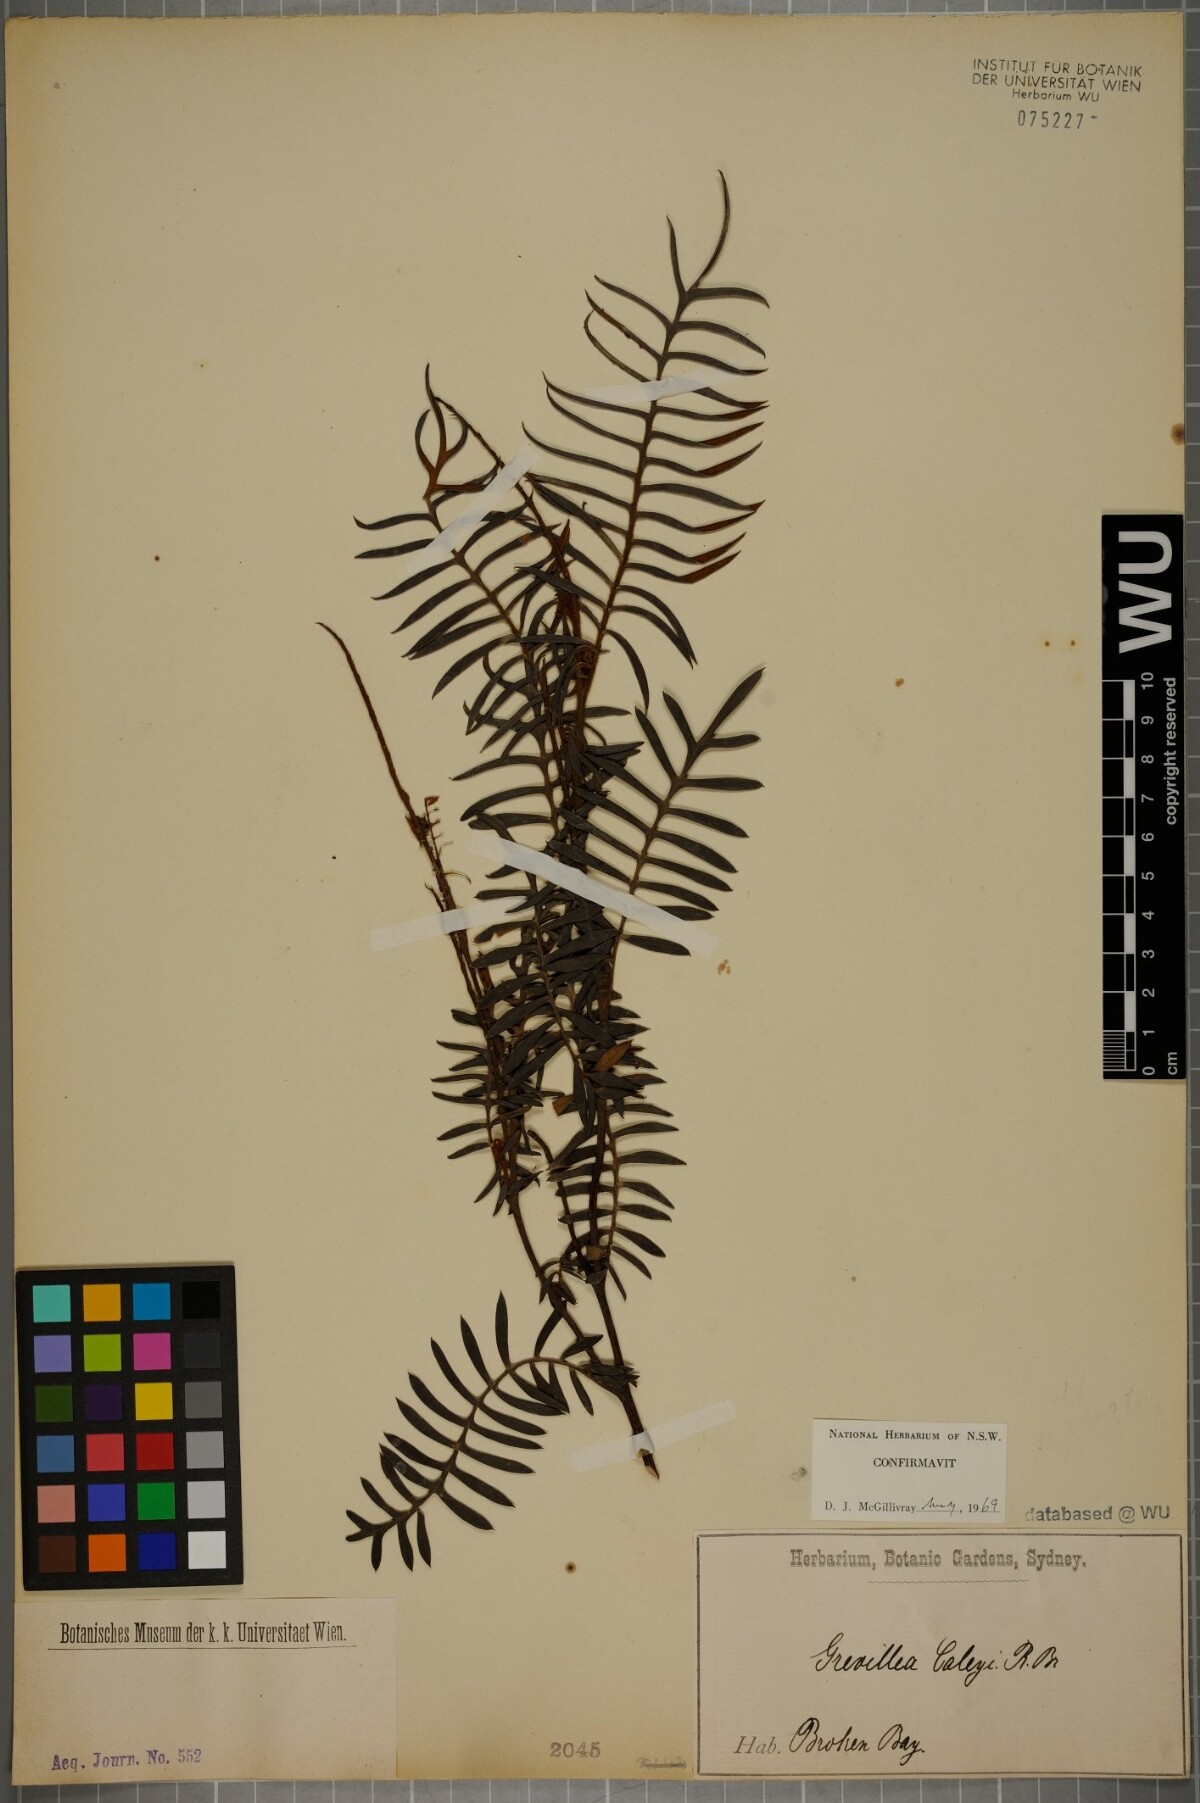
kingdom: Plantae
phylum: Tracheophyta
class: Magnoliopsida
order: Proteales
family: Proteaceae
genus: Grevillea
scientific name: Grevillea caleyi
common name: Caley's grevillea
